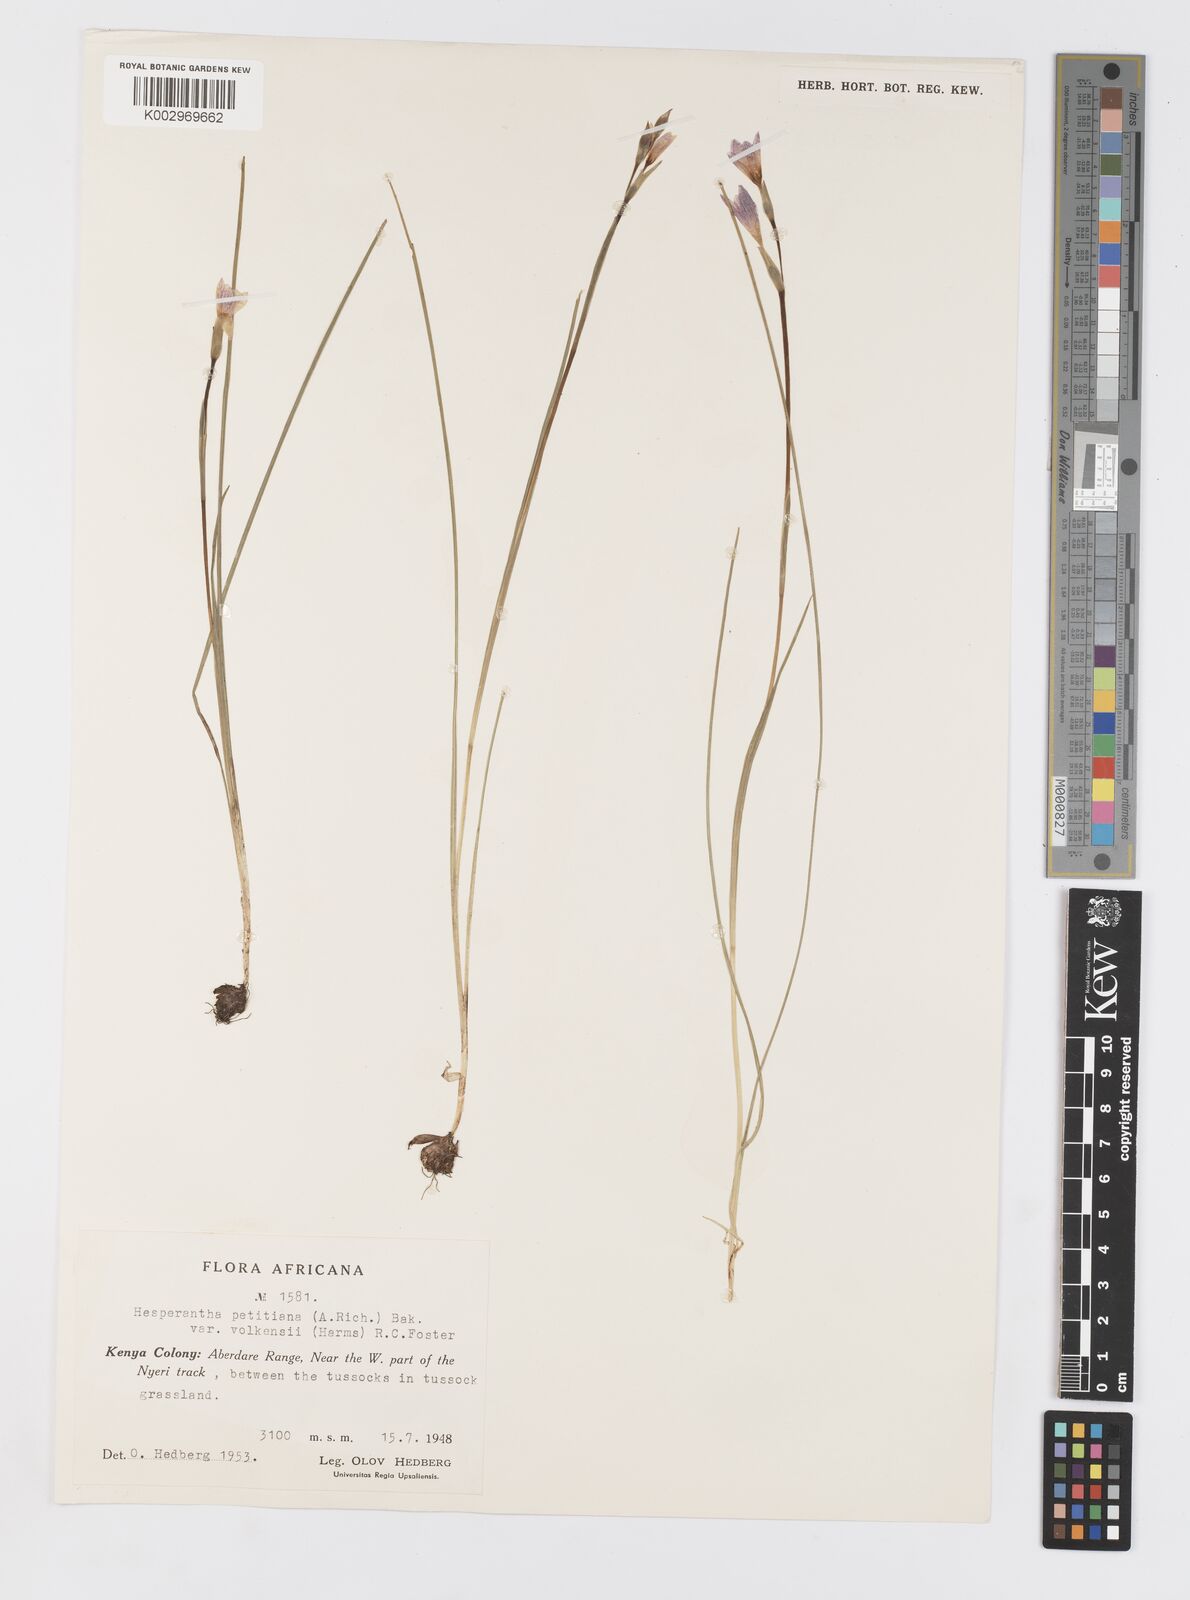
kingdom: Plantae
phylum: Tracheophyta
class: Liliopsida
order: Asparagales
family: Iridaceae
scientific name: Iridaceae
